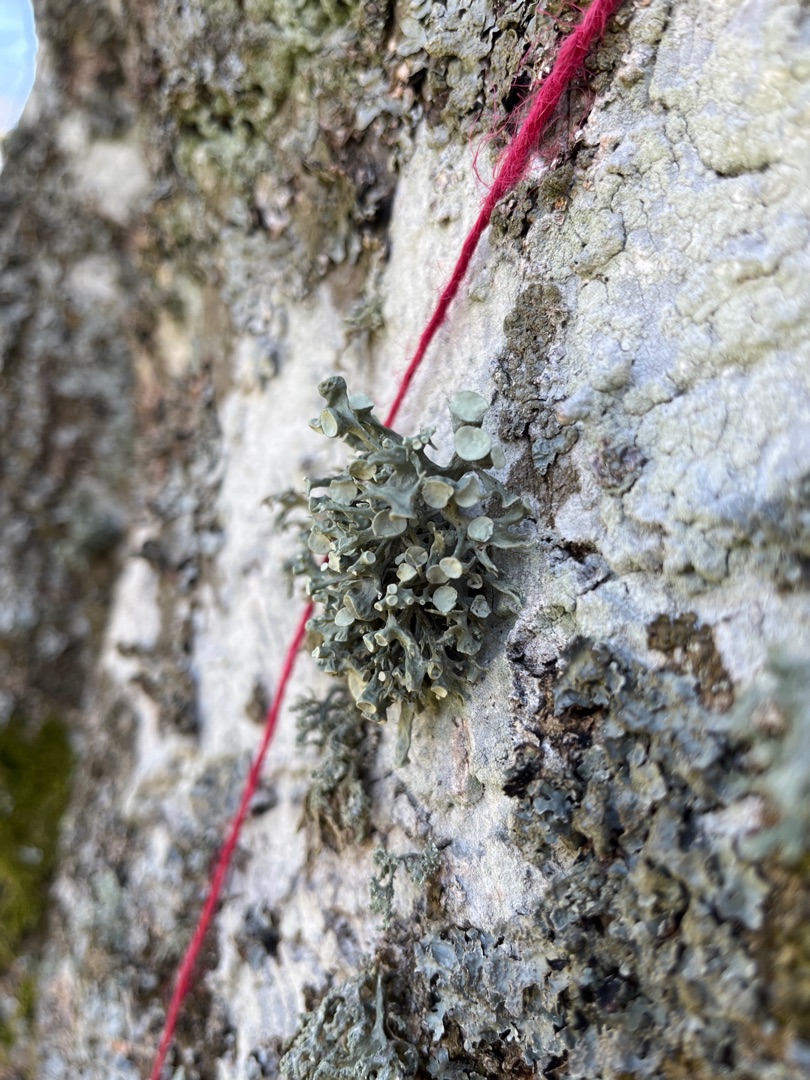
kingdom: Fungi
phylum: Ascomycota
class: Lecanoromycetes
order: Lecanorales
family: Ramalinaceae
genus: Ramalina
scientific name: Ramalina fastigiata
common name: Tue-grenlav
